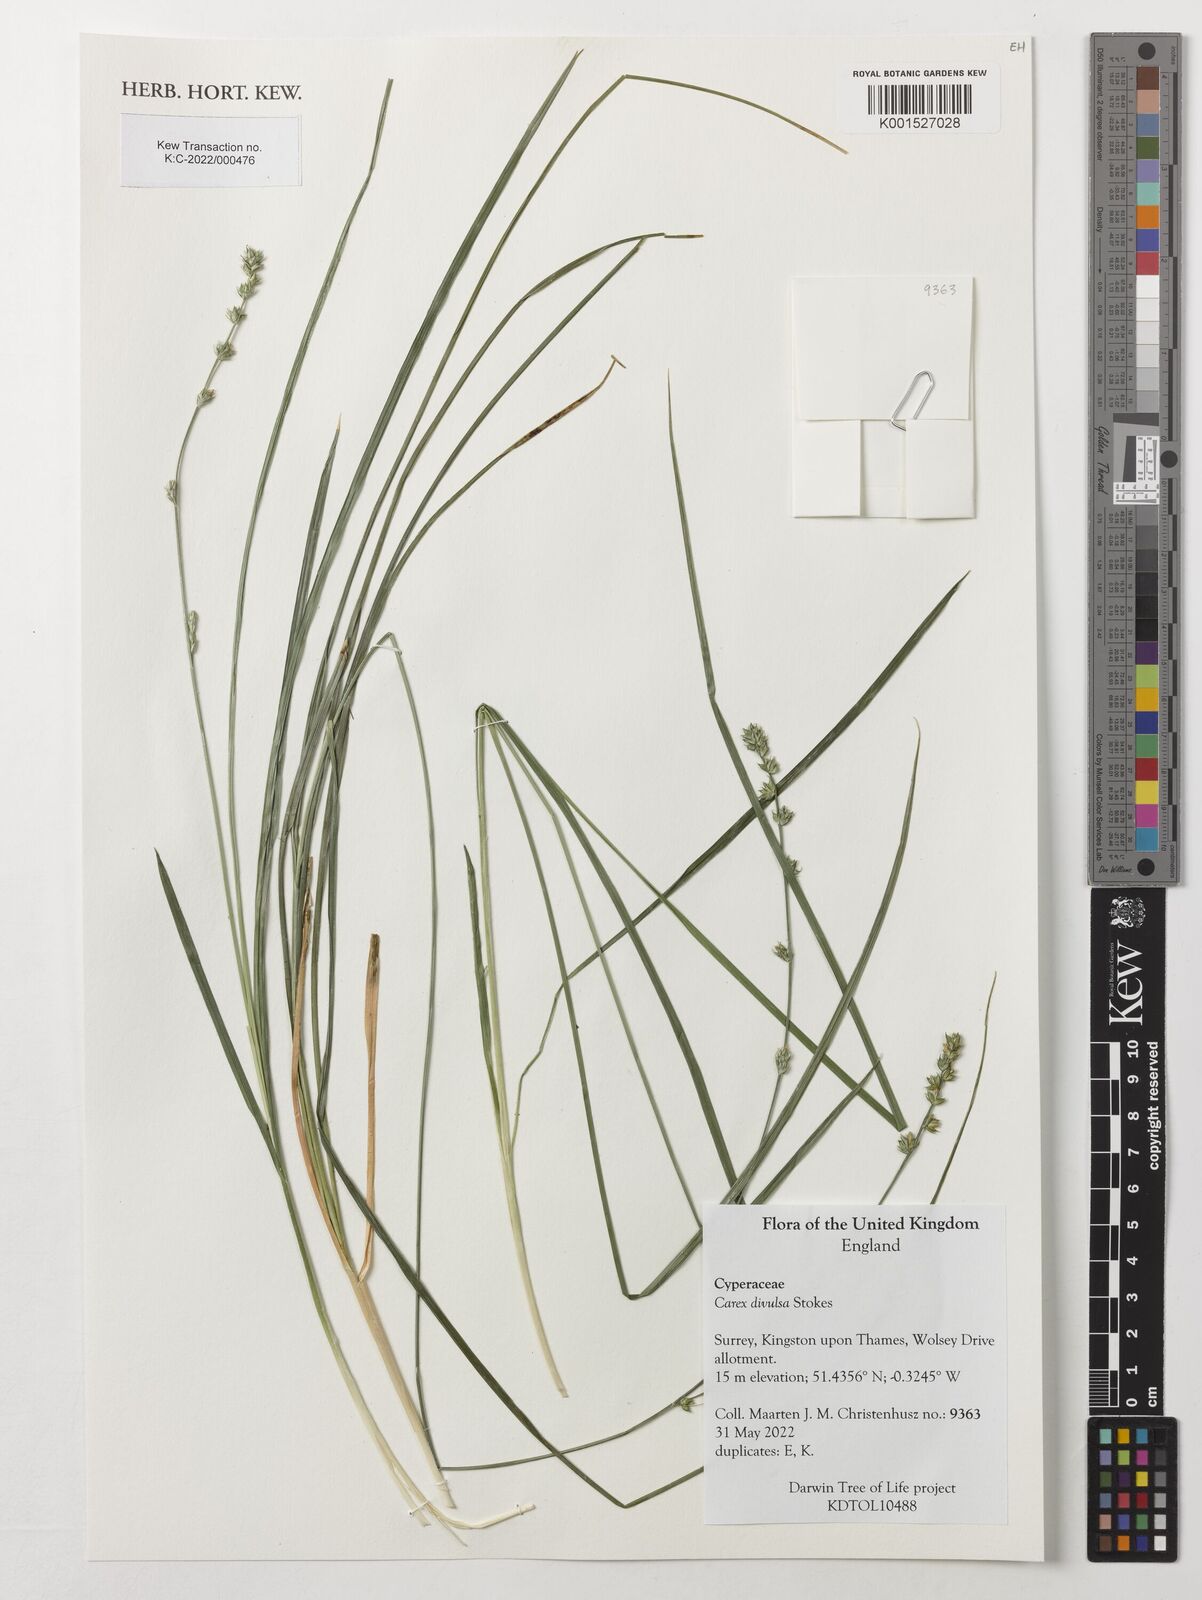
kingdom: Plantae
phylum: Tracheophyta
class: Liliopsida
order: Poales
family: Cyperaceae
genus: Carex
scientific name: Carex divulsa
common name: Grassland sedge
